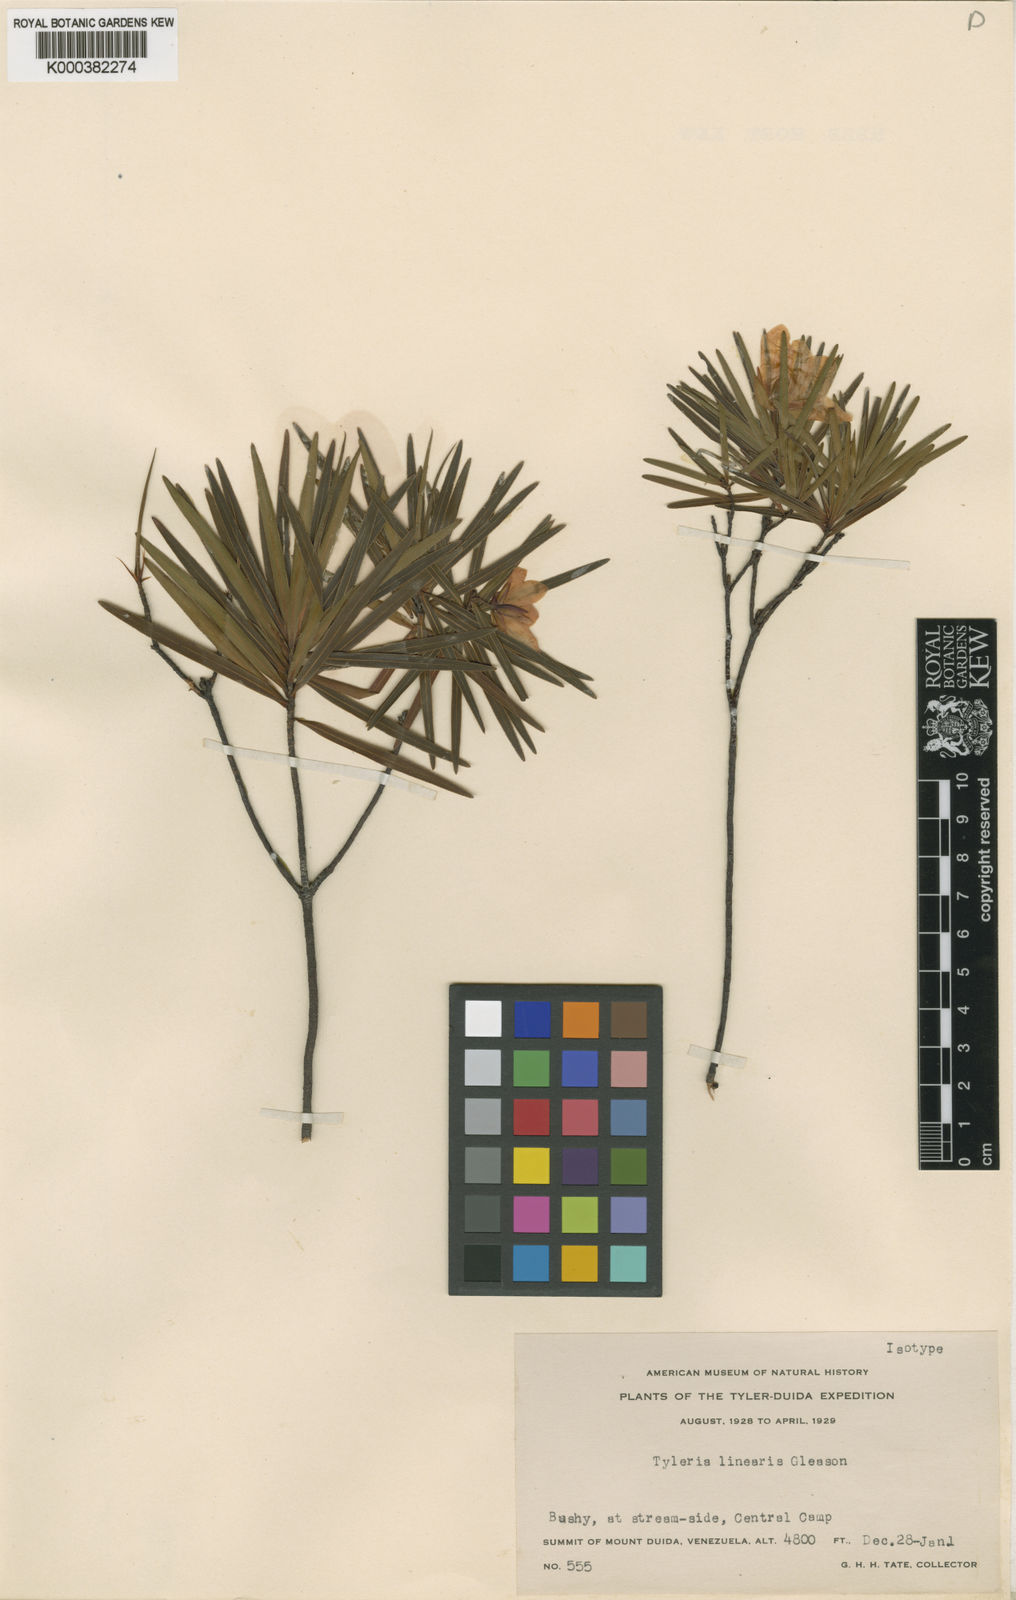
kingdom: Plantae
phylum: Tracheophyta
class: Magnoliopsida
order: Malpighiales
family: Ochnaceae
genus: Tyleria
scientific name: Tyleria linearis
